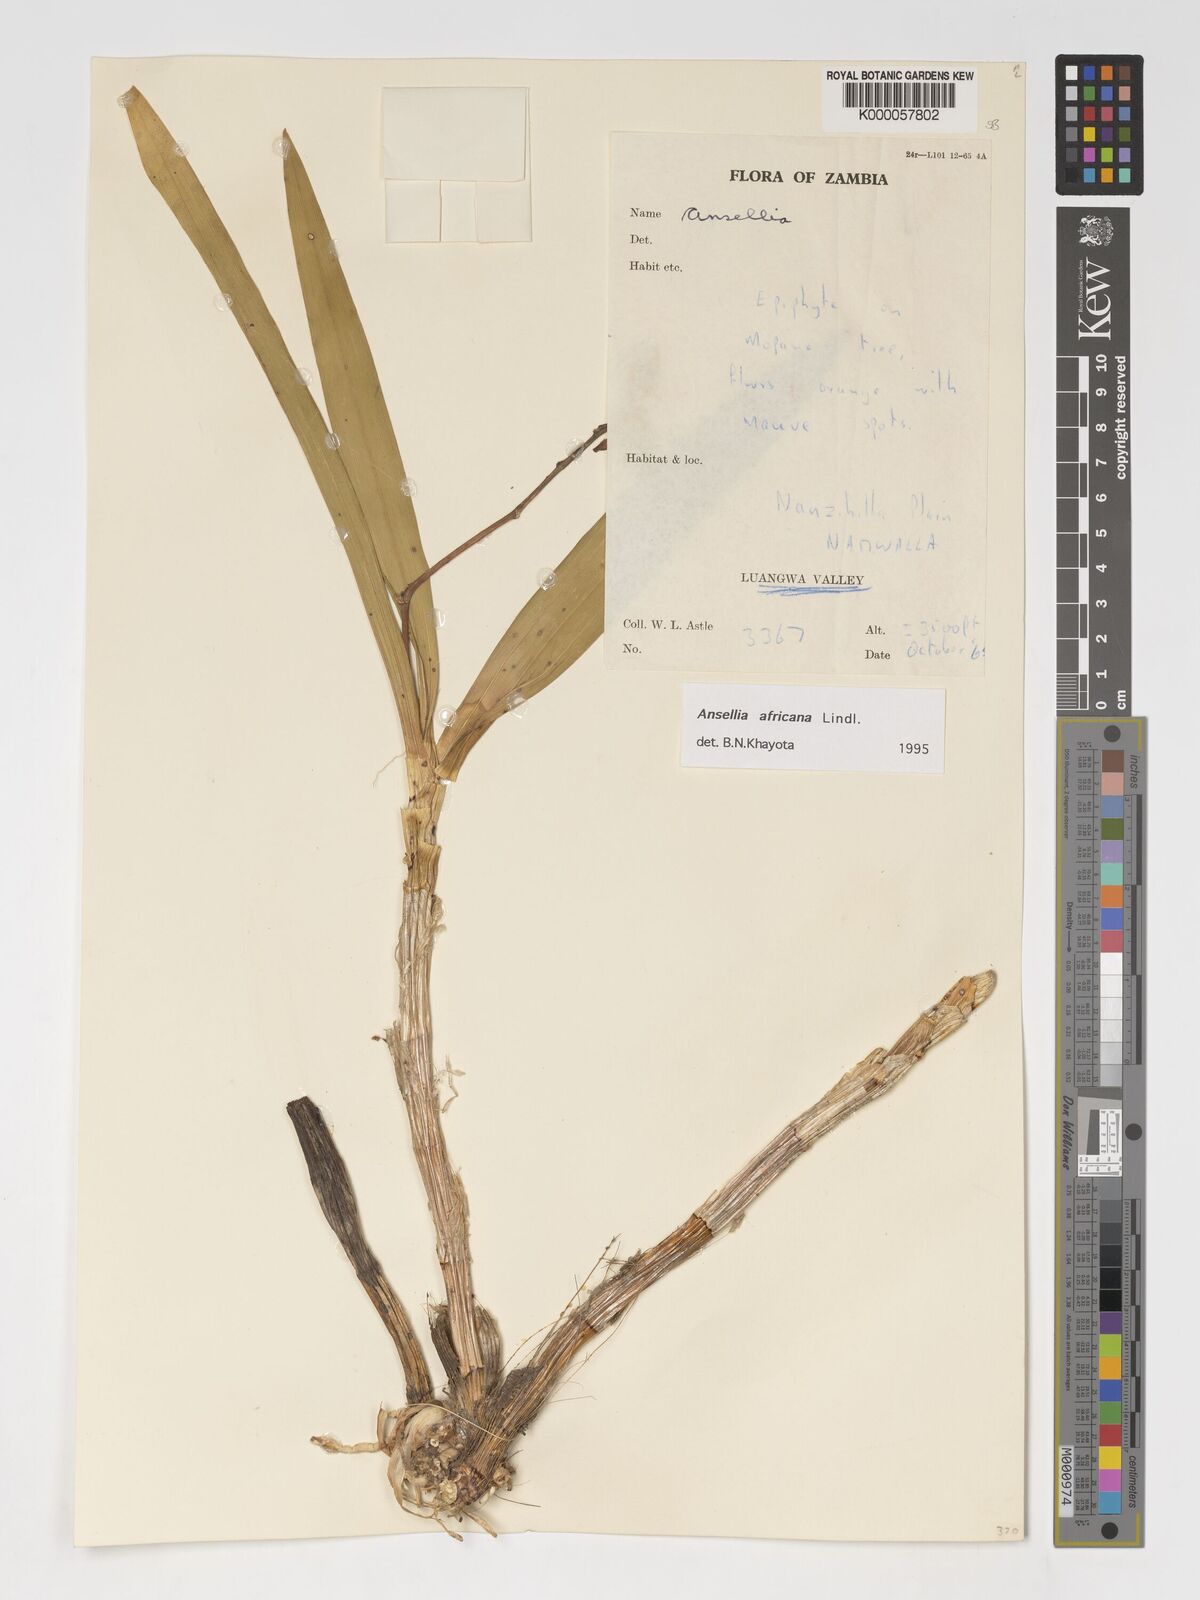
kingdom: Plantae
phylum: Tracheophyta
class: Liliopsida
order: Asparagales
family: Orchidaceae
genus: Ansellia
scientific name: Ansellia africana
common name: African ansellia
